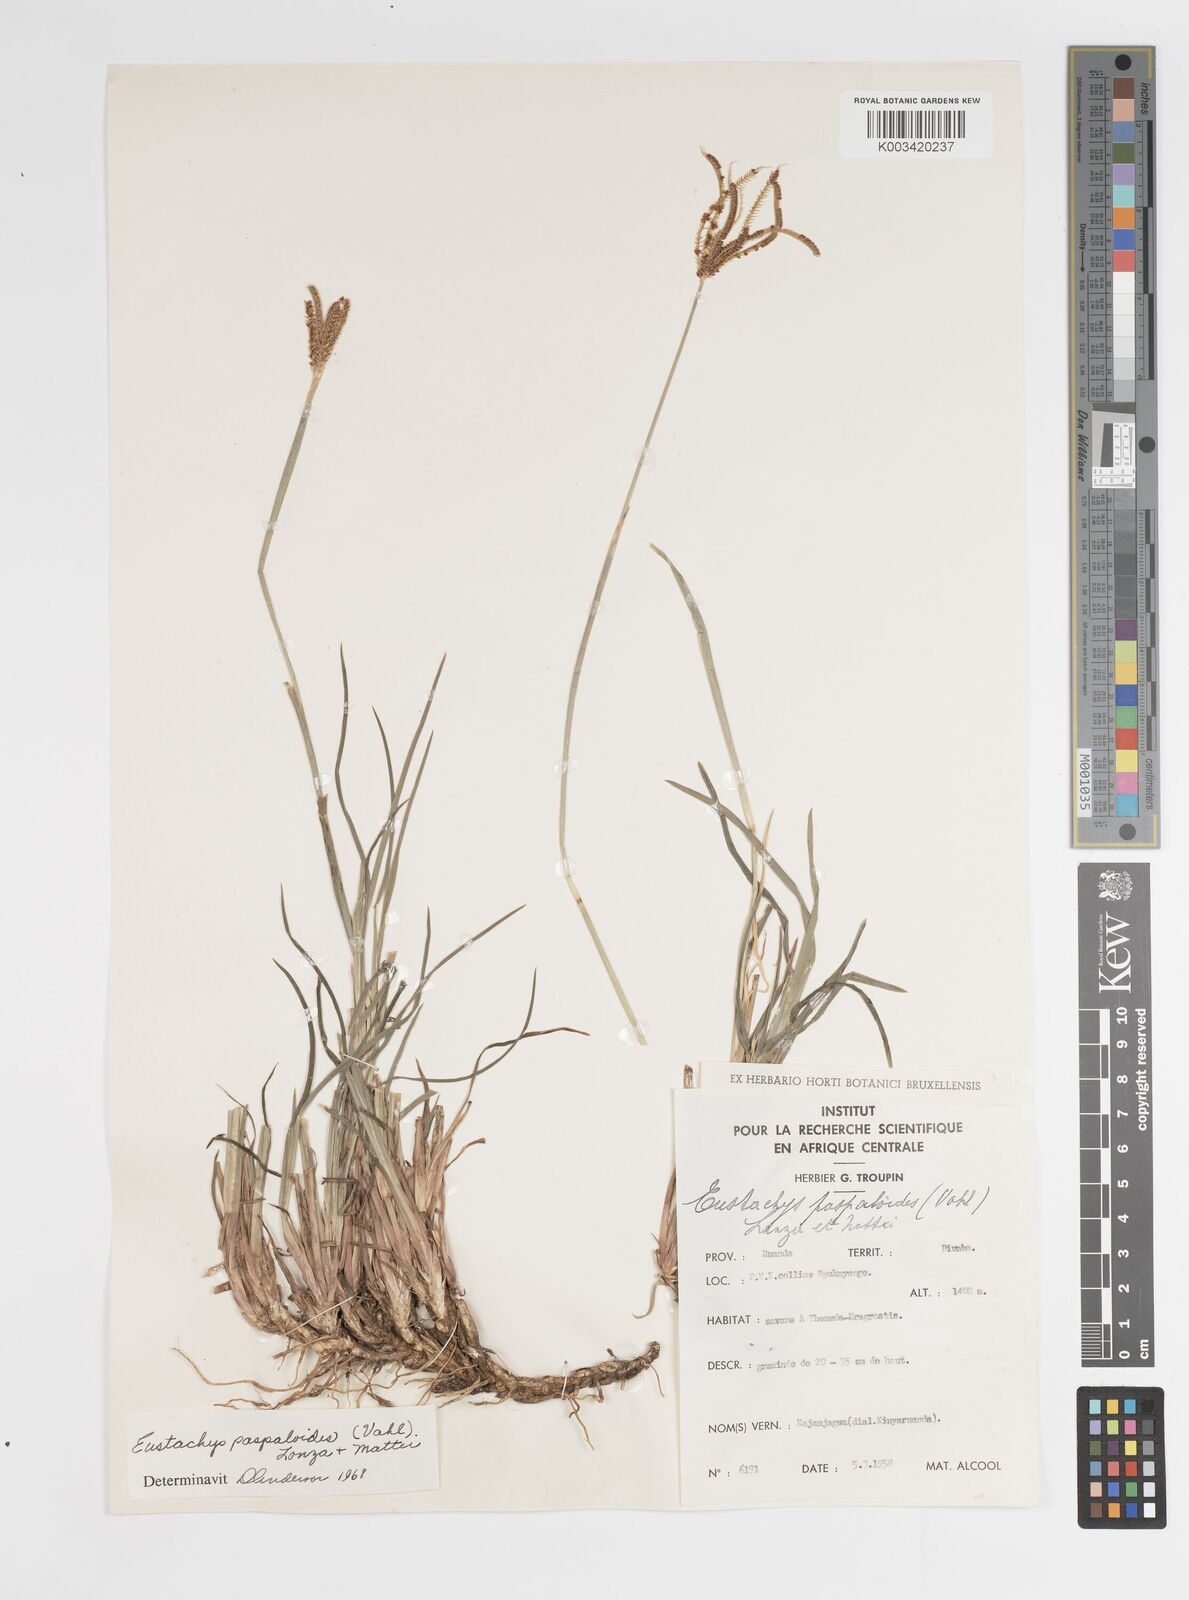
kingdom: Plantae
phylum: Tracheophyta
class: Liliopsida
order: Poales
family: Poaceae
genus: Eustachys
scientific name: Eustachys paspaloides
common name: Caribbean fingergrass
